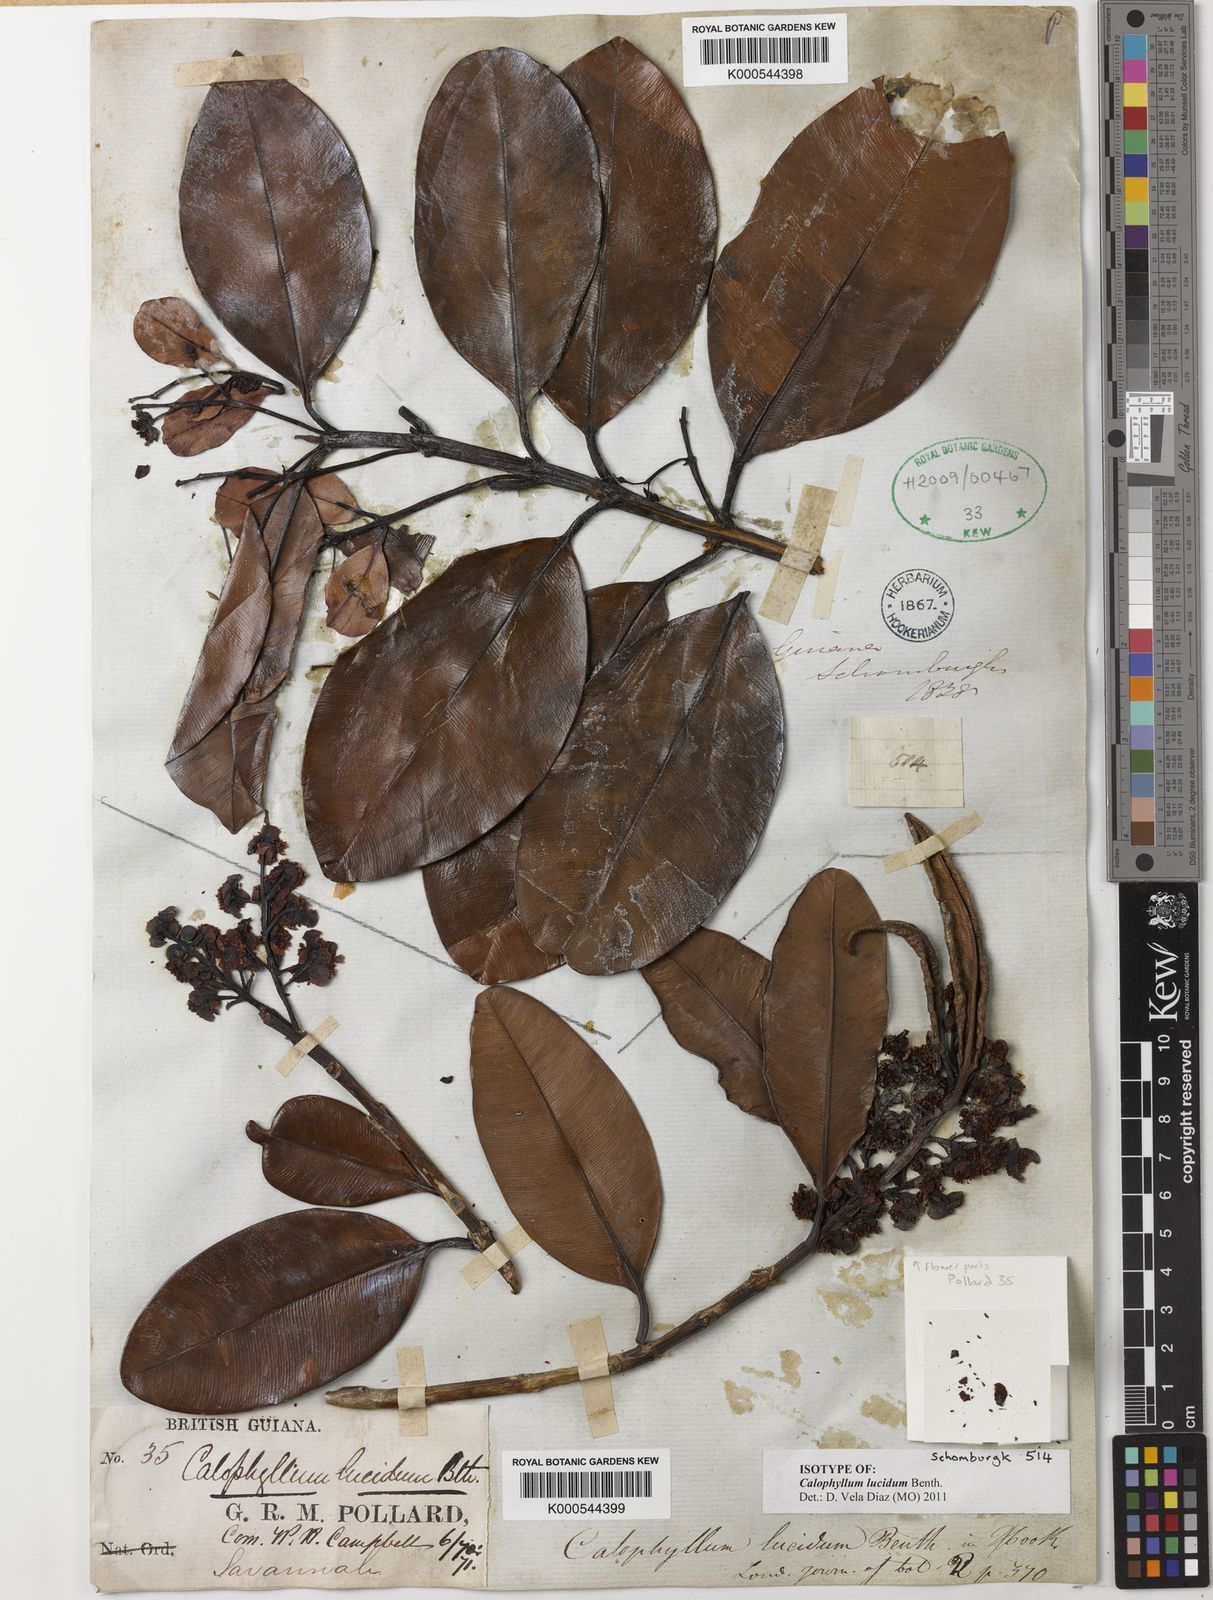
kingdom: Plantae
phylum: Tracheophyta
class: Magnoliopsida
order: Malpighiales
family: Calophyllaceae
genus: Calophyllum
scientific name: Calophyllum brasiliense
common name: Santa maria
